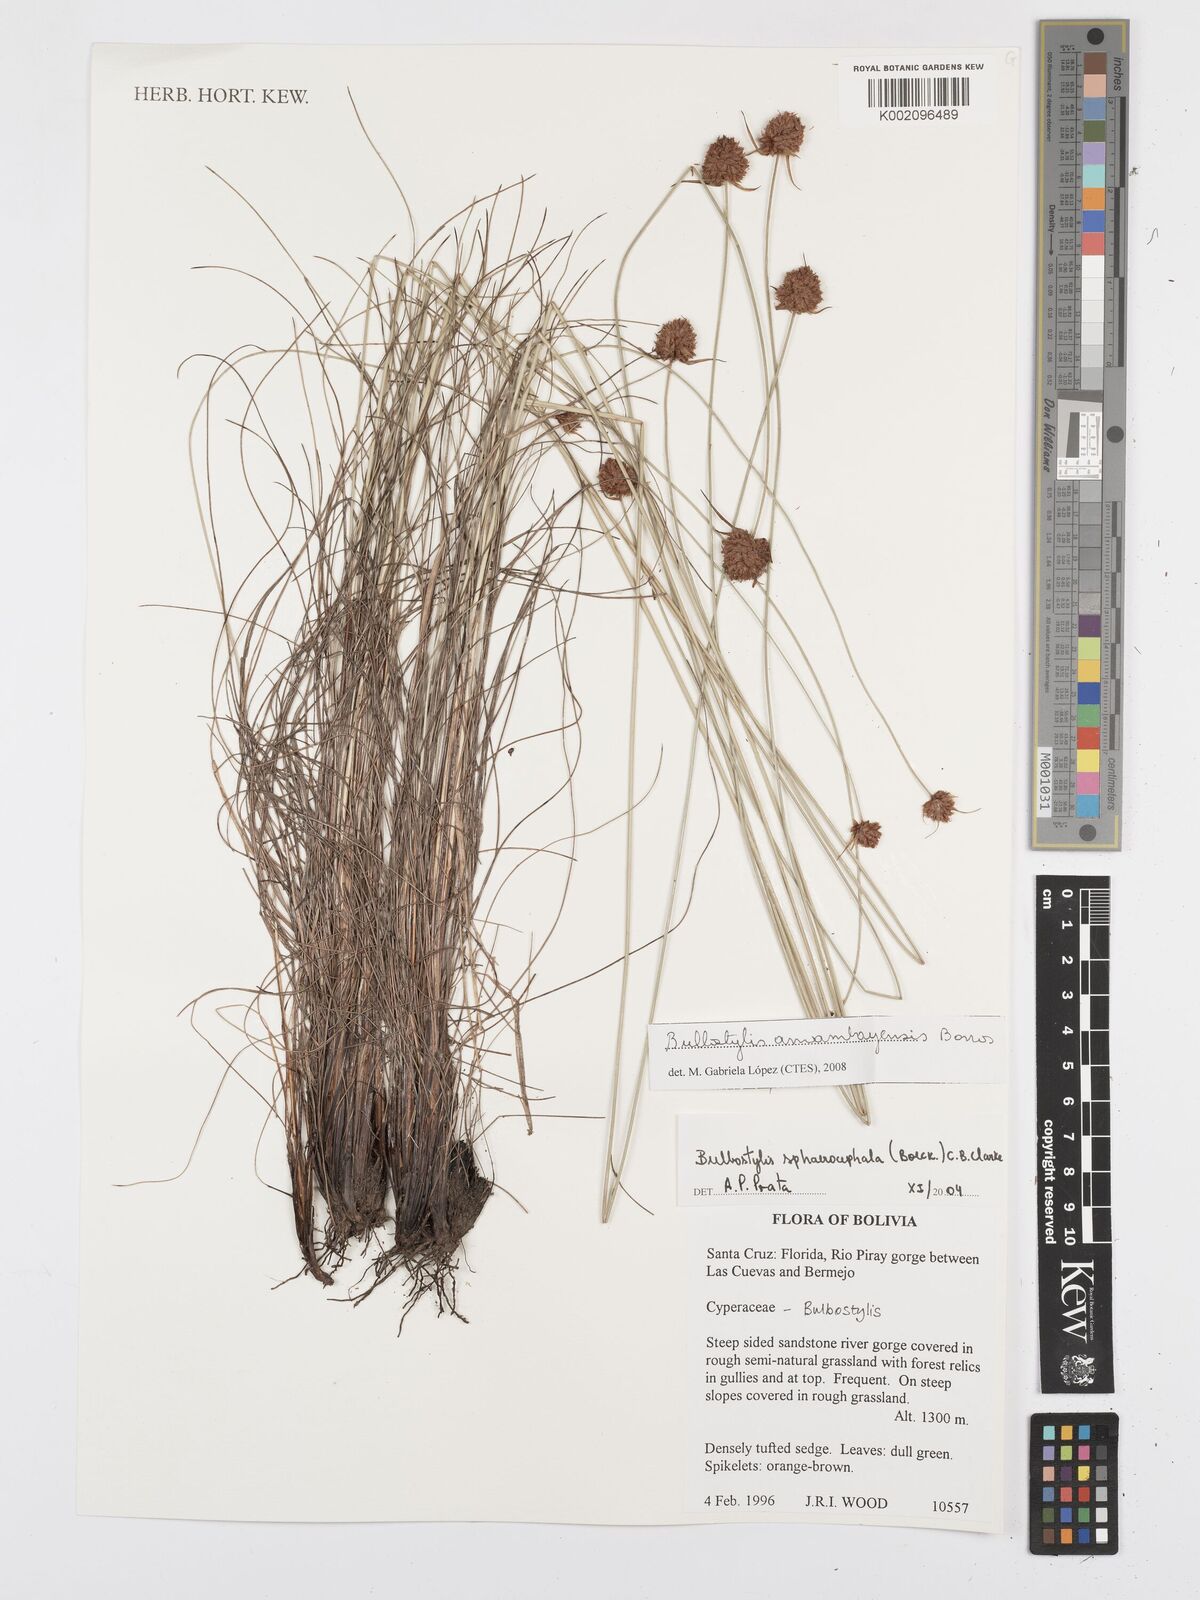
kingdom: Plantae
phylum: Tracheophyta
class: Liliopsida
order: Poales
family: Cyperaceae
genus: Bulbostylis
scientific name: Bulbostylis amambayensis
